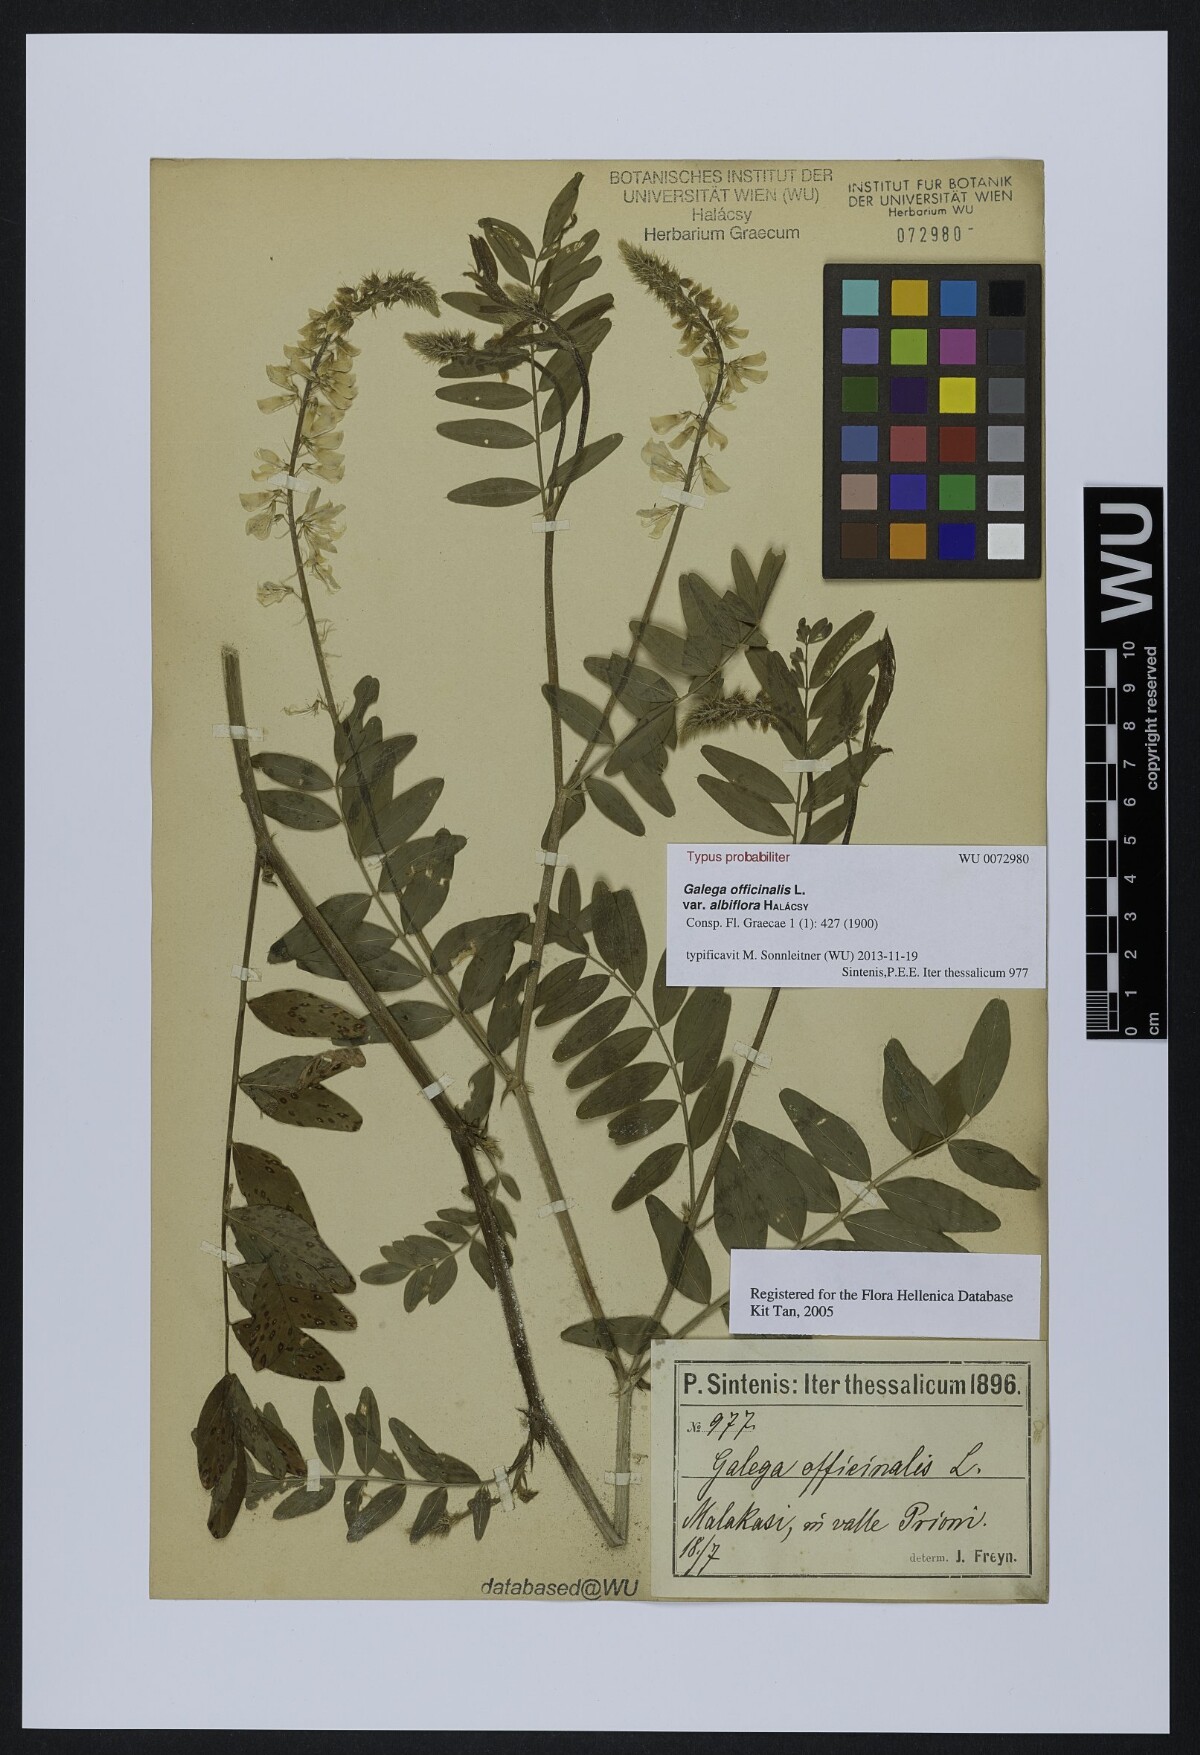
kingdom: Plantae
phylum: Tracheophyta
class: Magnoliopsida
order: Fabales
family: Fabaceae
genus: Galega
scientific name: Galega officinalis
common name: Goat's-rue
